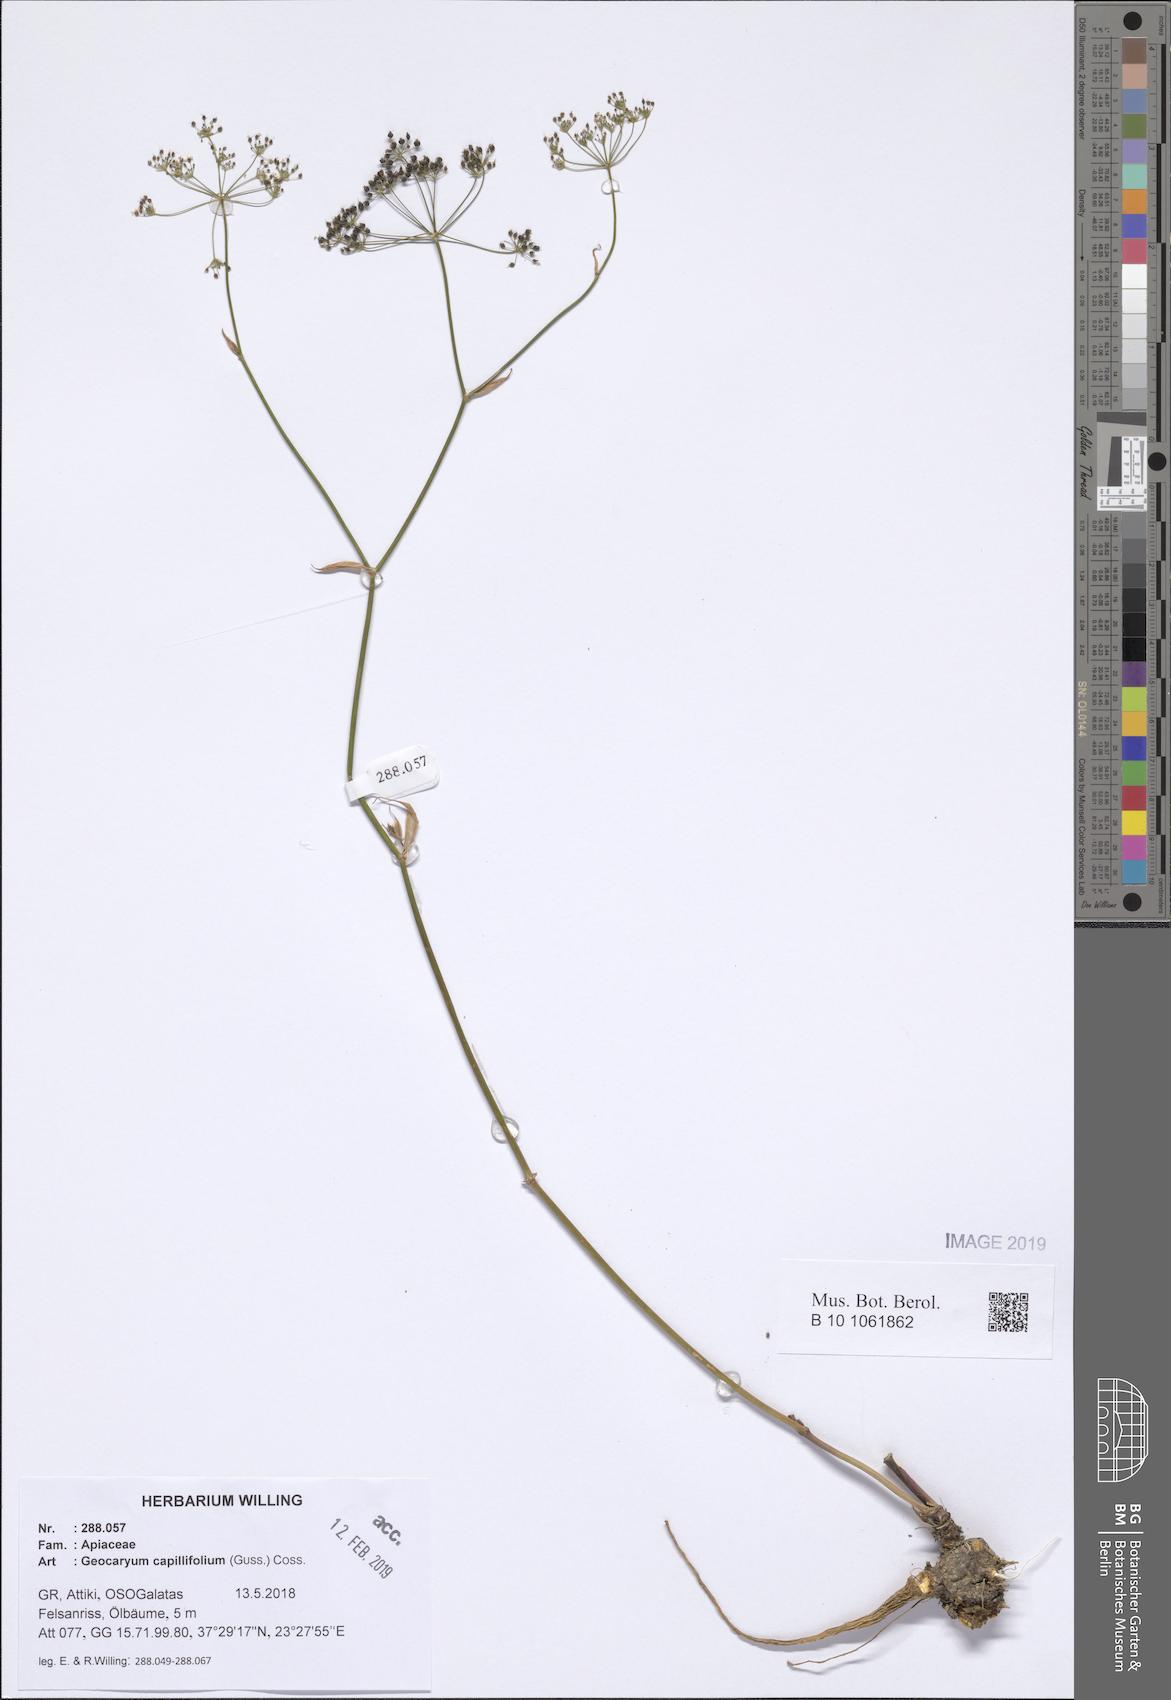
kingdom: Plantae
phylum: Tracheophyta
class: Magnoliopsida
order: Apiales
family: Apiaceae
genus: Geocaryum
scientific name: Geocaryum capillifolium
